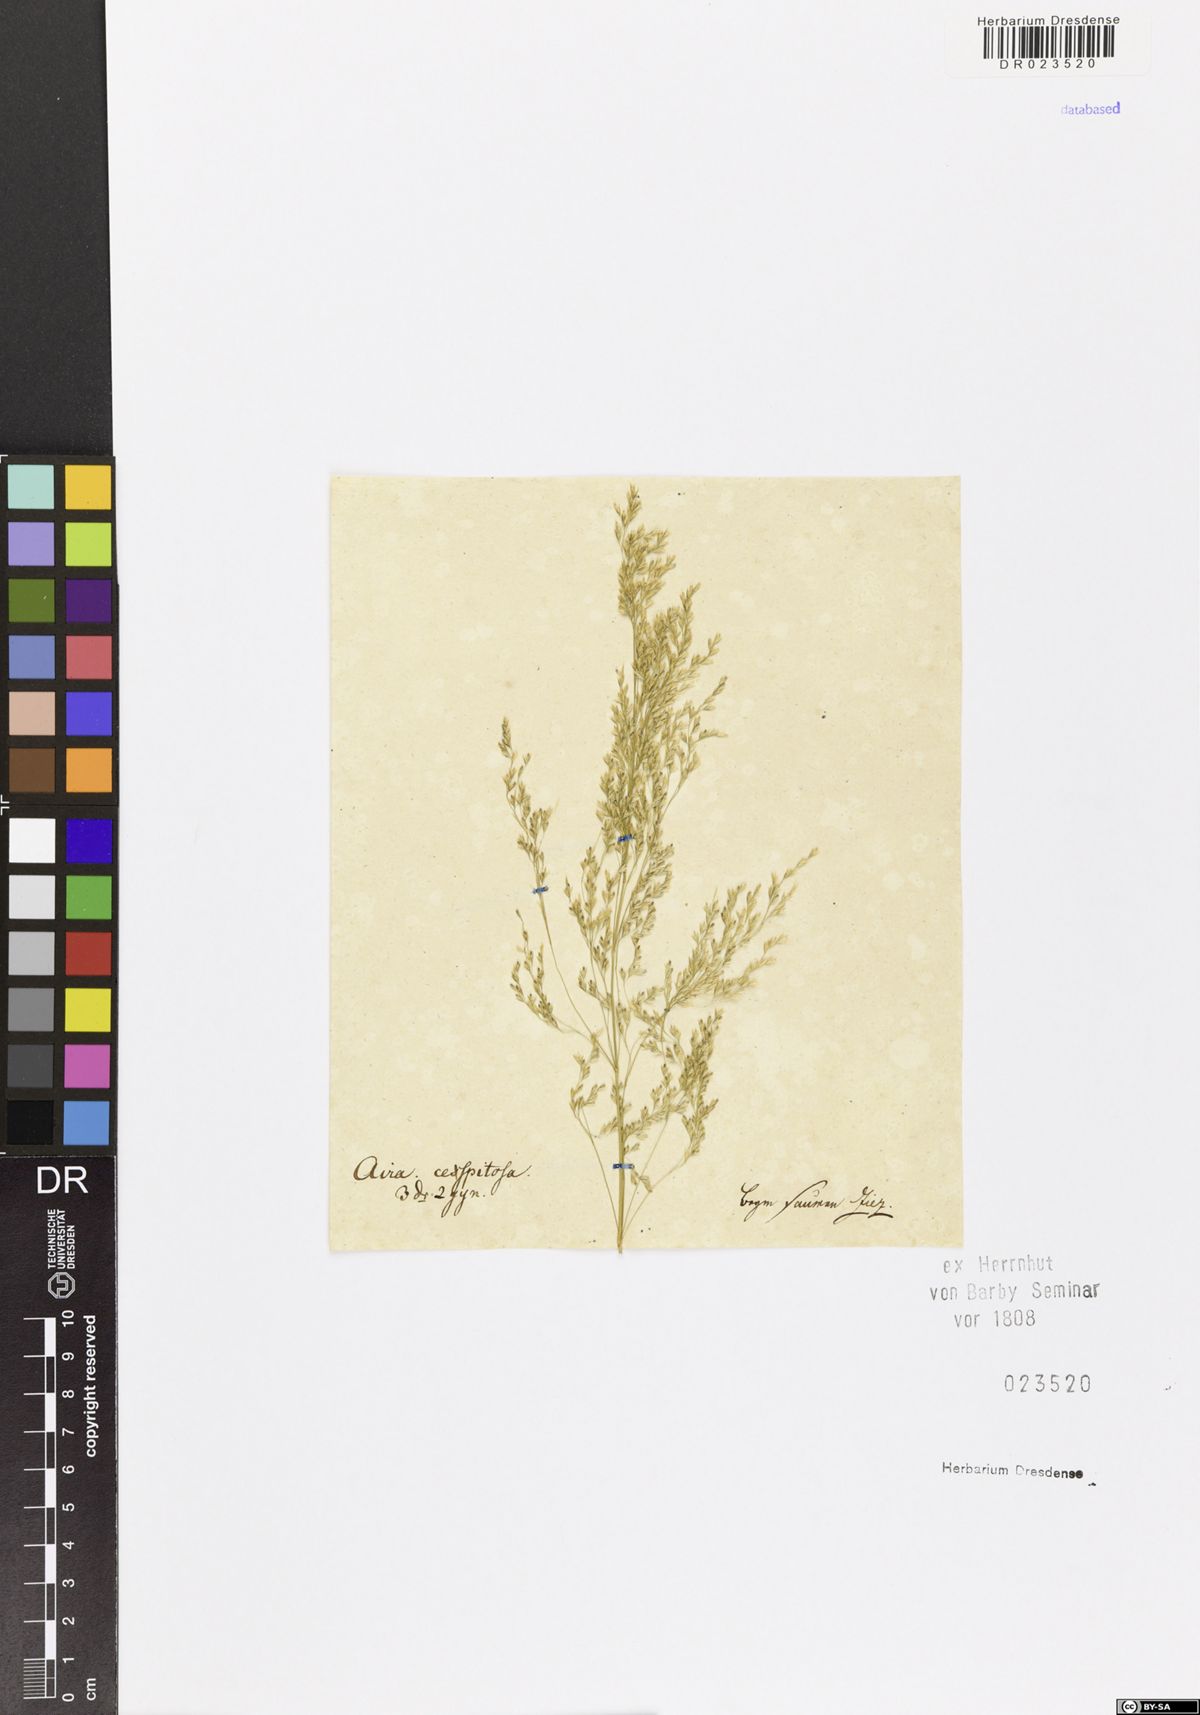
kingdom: Plantae
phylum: Tracheophyta
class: Liliopsida
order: Poales
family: Poaceae
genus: Deschampsia
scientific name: Deschampsia cespitosa
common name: Tufted hair-grass
